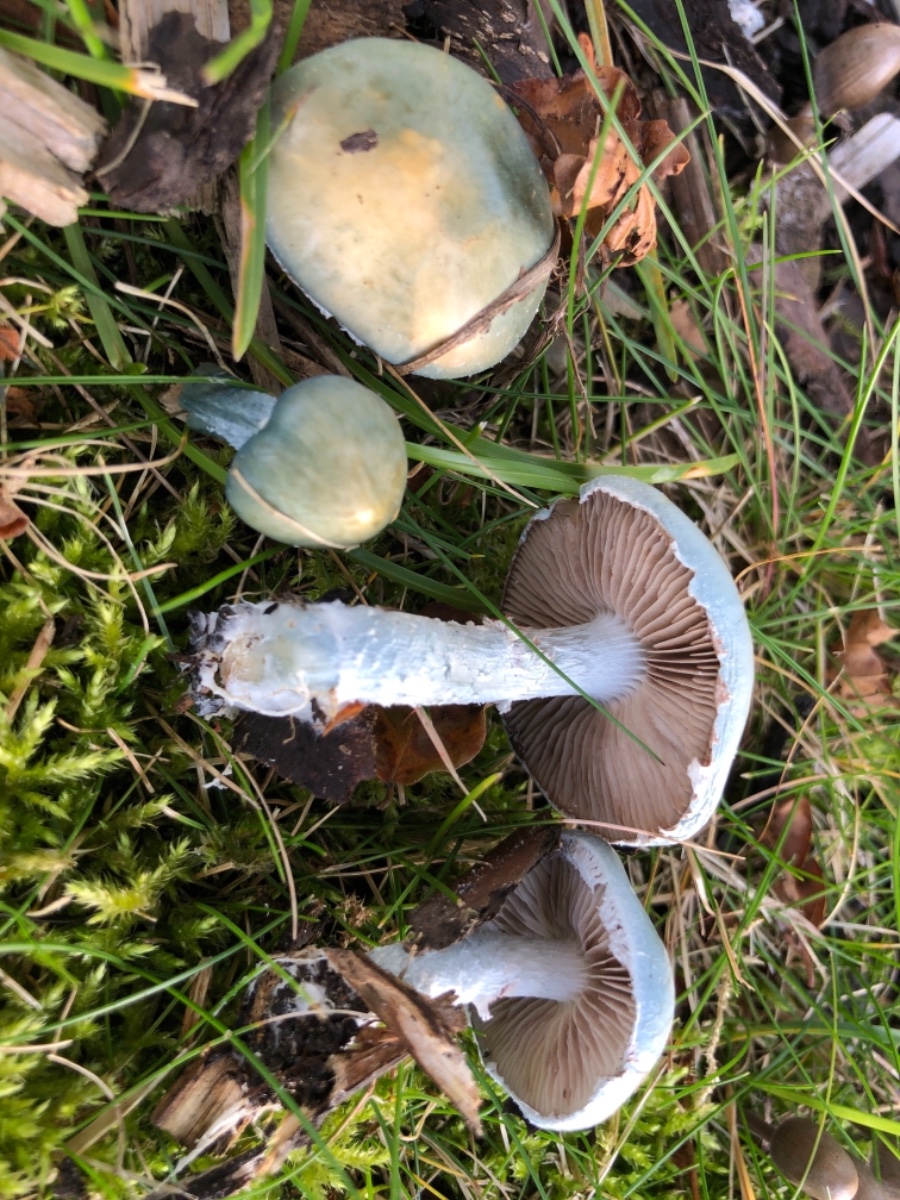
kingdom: Fungi
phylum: Basidiomycota
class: Agaricomycetes
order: Agaricales
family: Strophariaceae
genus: Stropharia
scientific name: Stropharia cyanea
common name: blågrøn bredblad
